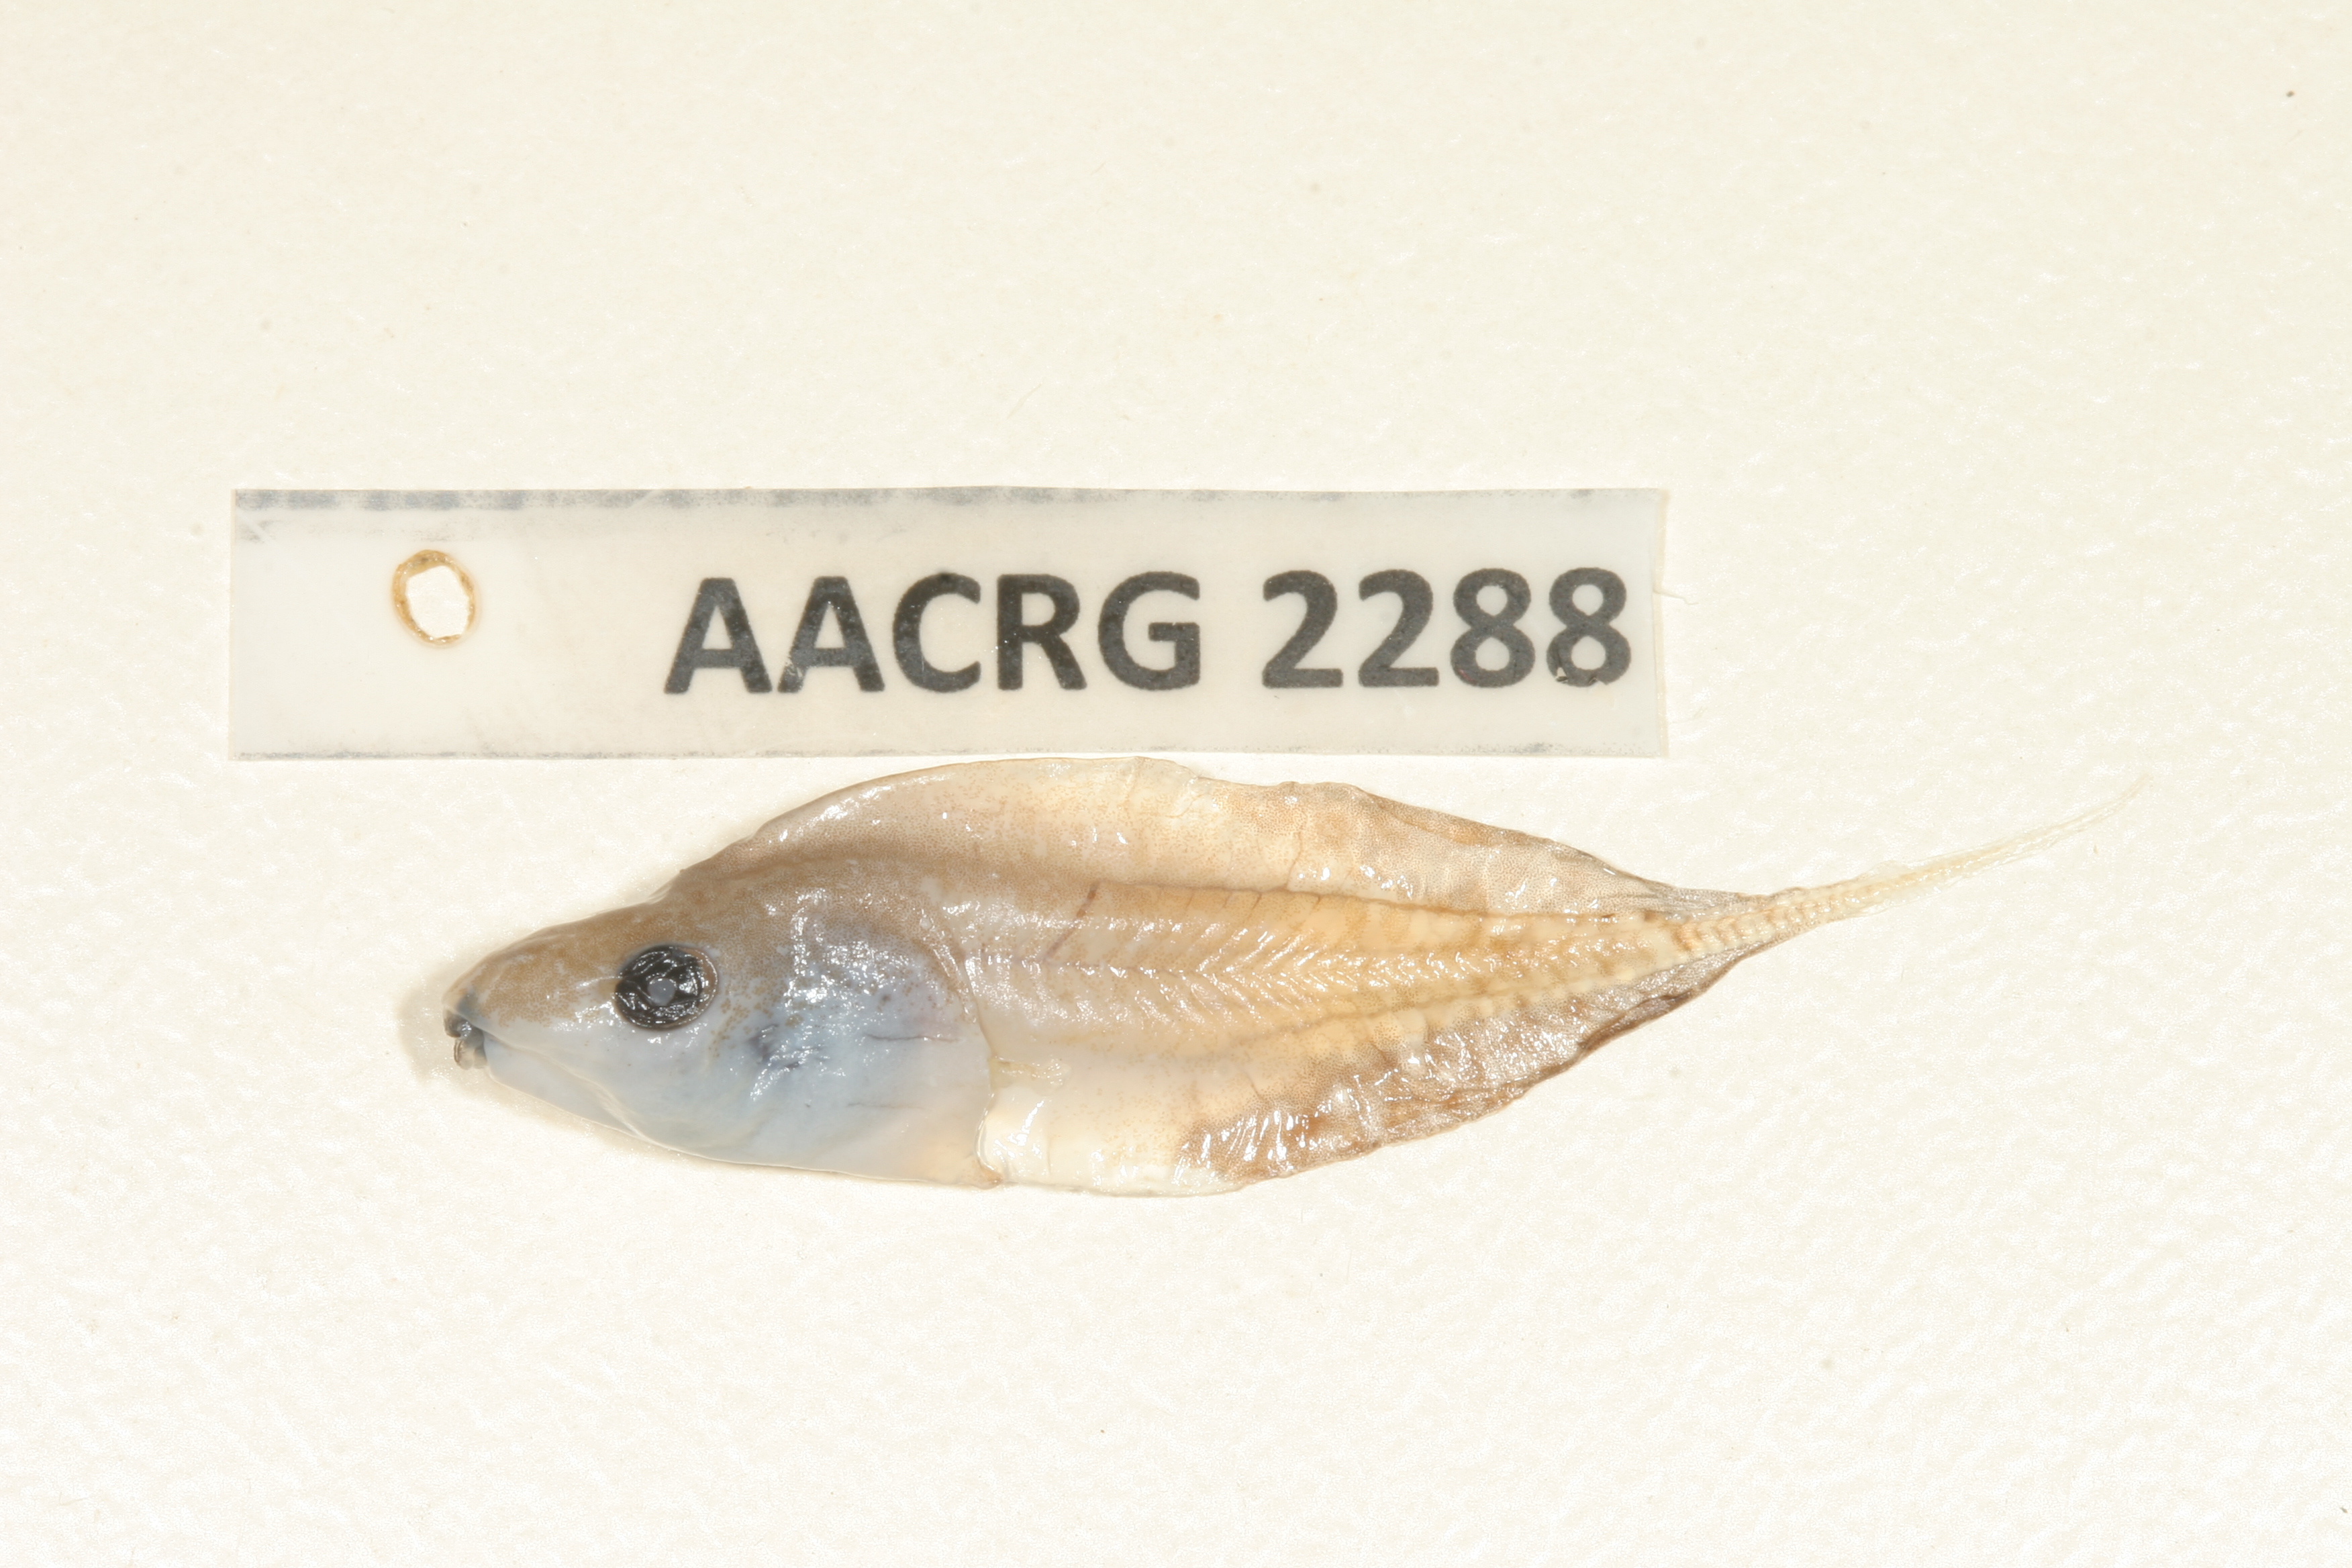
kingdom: Animalia
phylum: Chordata
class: Amphibia
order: Anura
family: Hyperoliidae
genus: Kassina
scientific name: Kassina senegalensis
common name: Senegal land frog
